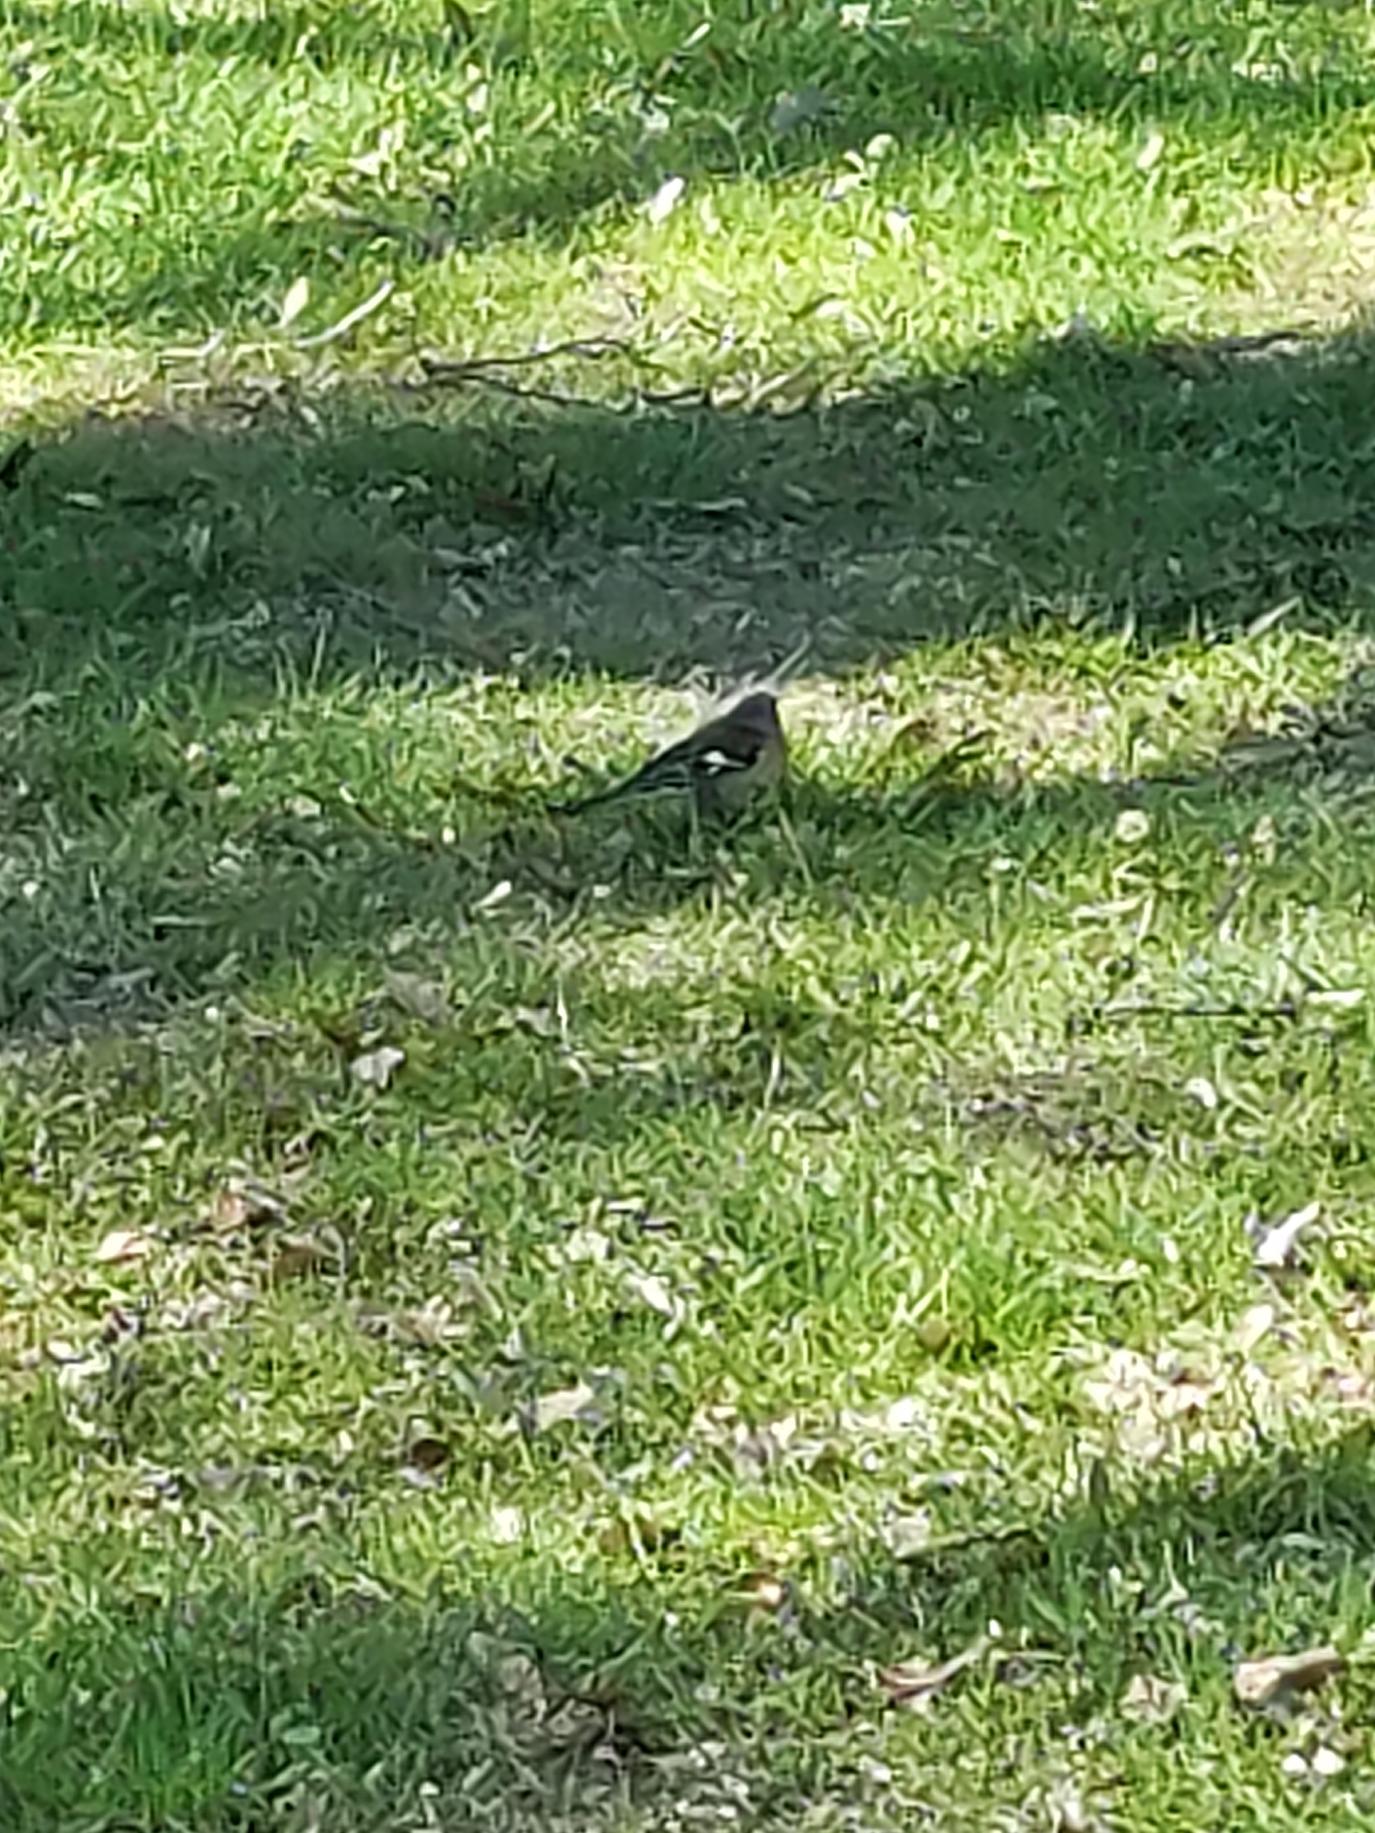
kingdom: Animalia
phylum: Chordata
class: Aves
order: Passeriformes
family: Fringillidae
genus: Fringilla
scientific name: Fringilla coelebs
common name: Bogfinke
